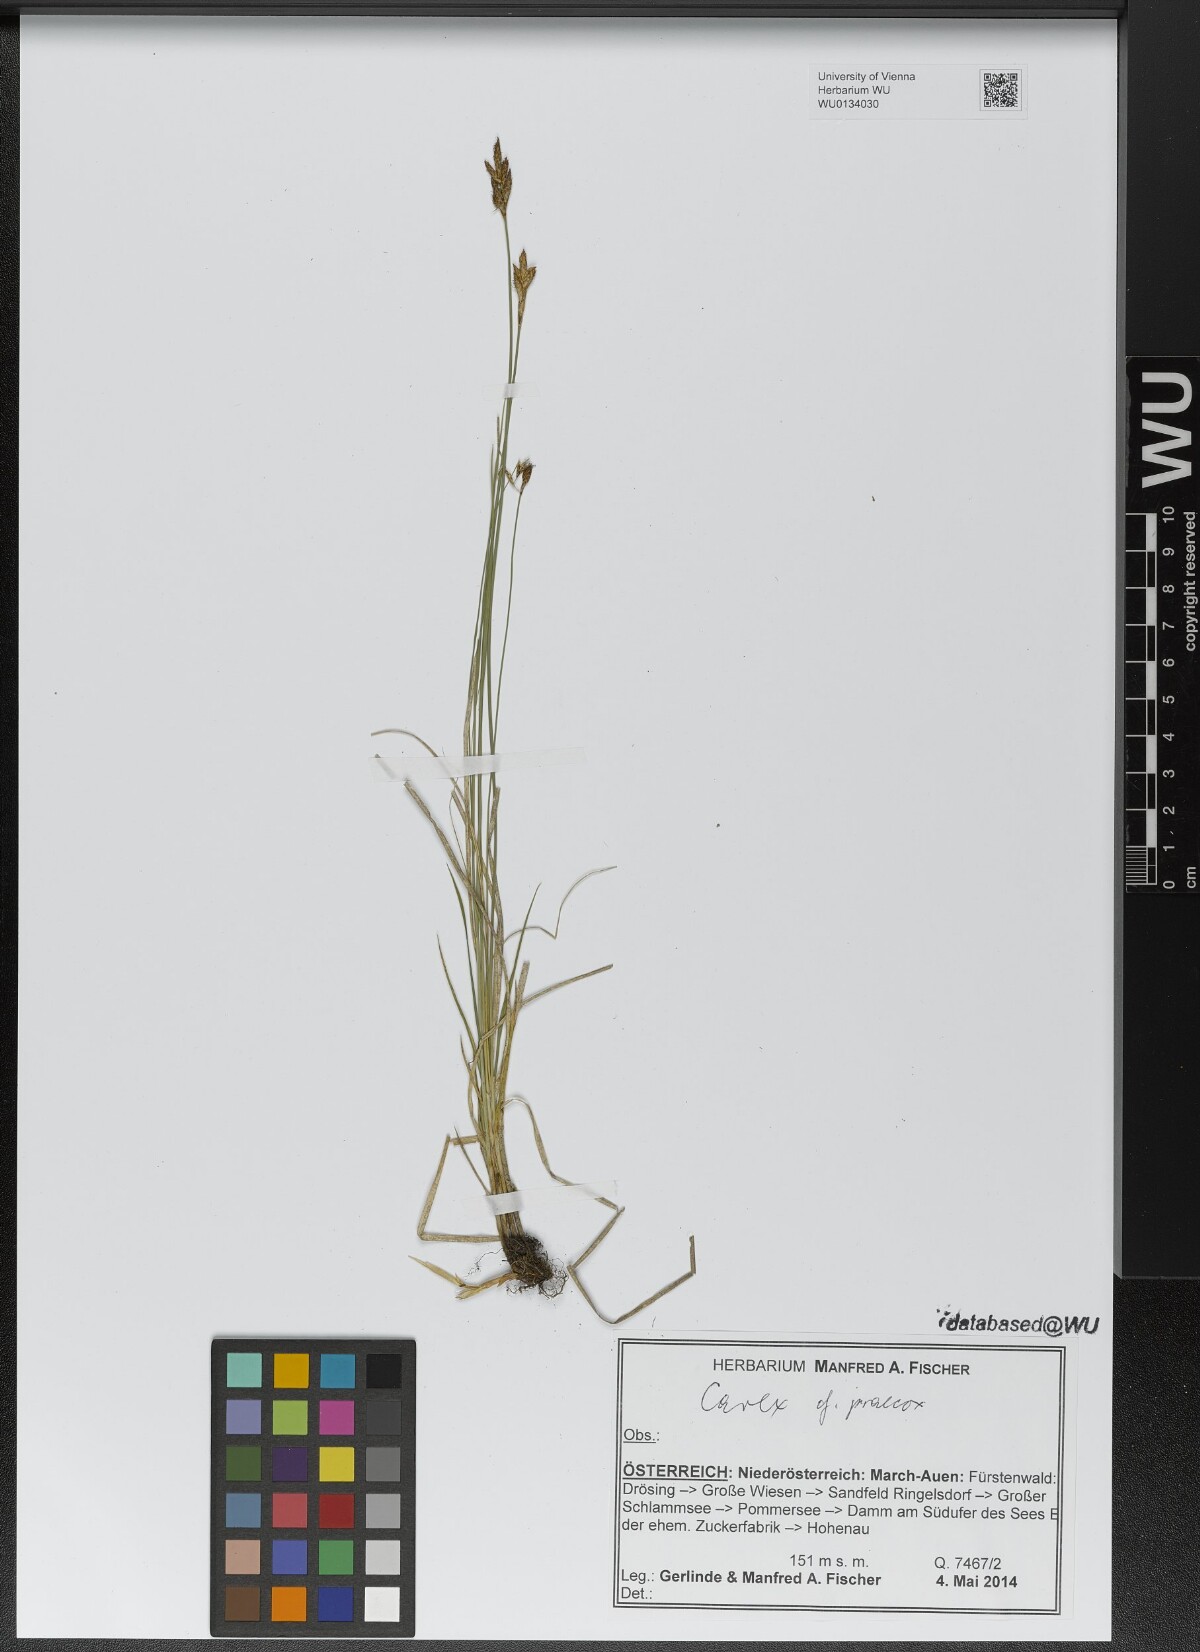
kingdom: Plantae
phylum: Tracheophyta
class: Liliopsida
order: Poales
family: Cyperaceae
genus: Carex
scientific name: Carex praecox
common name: Early sedge
